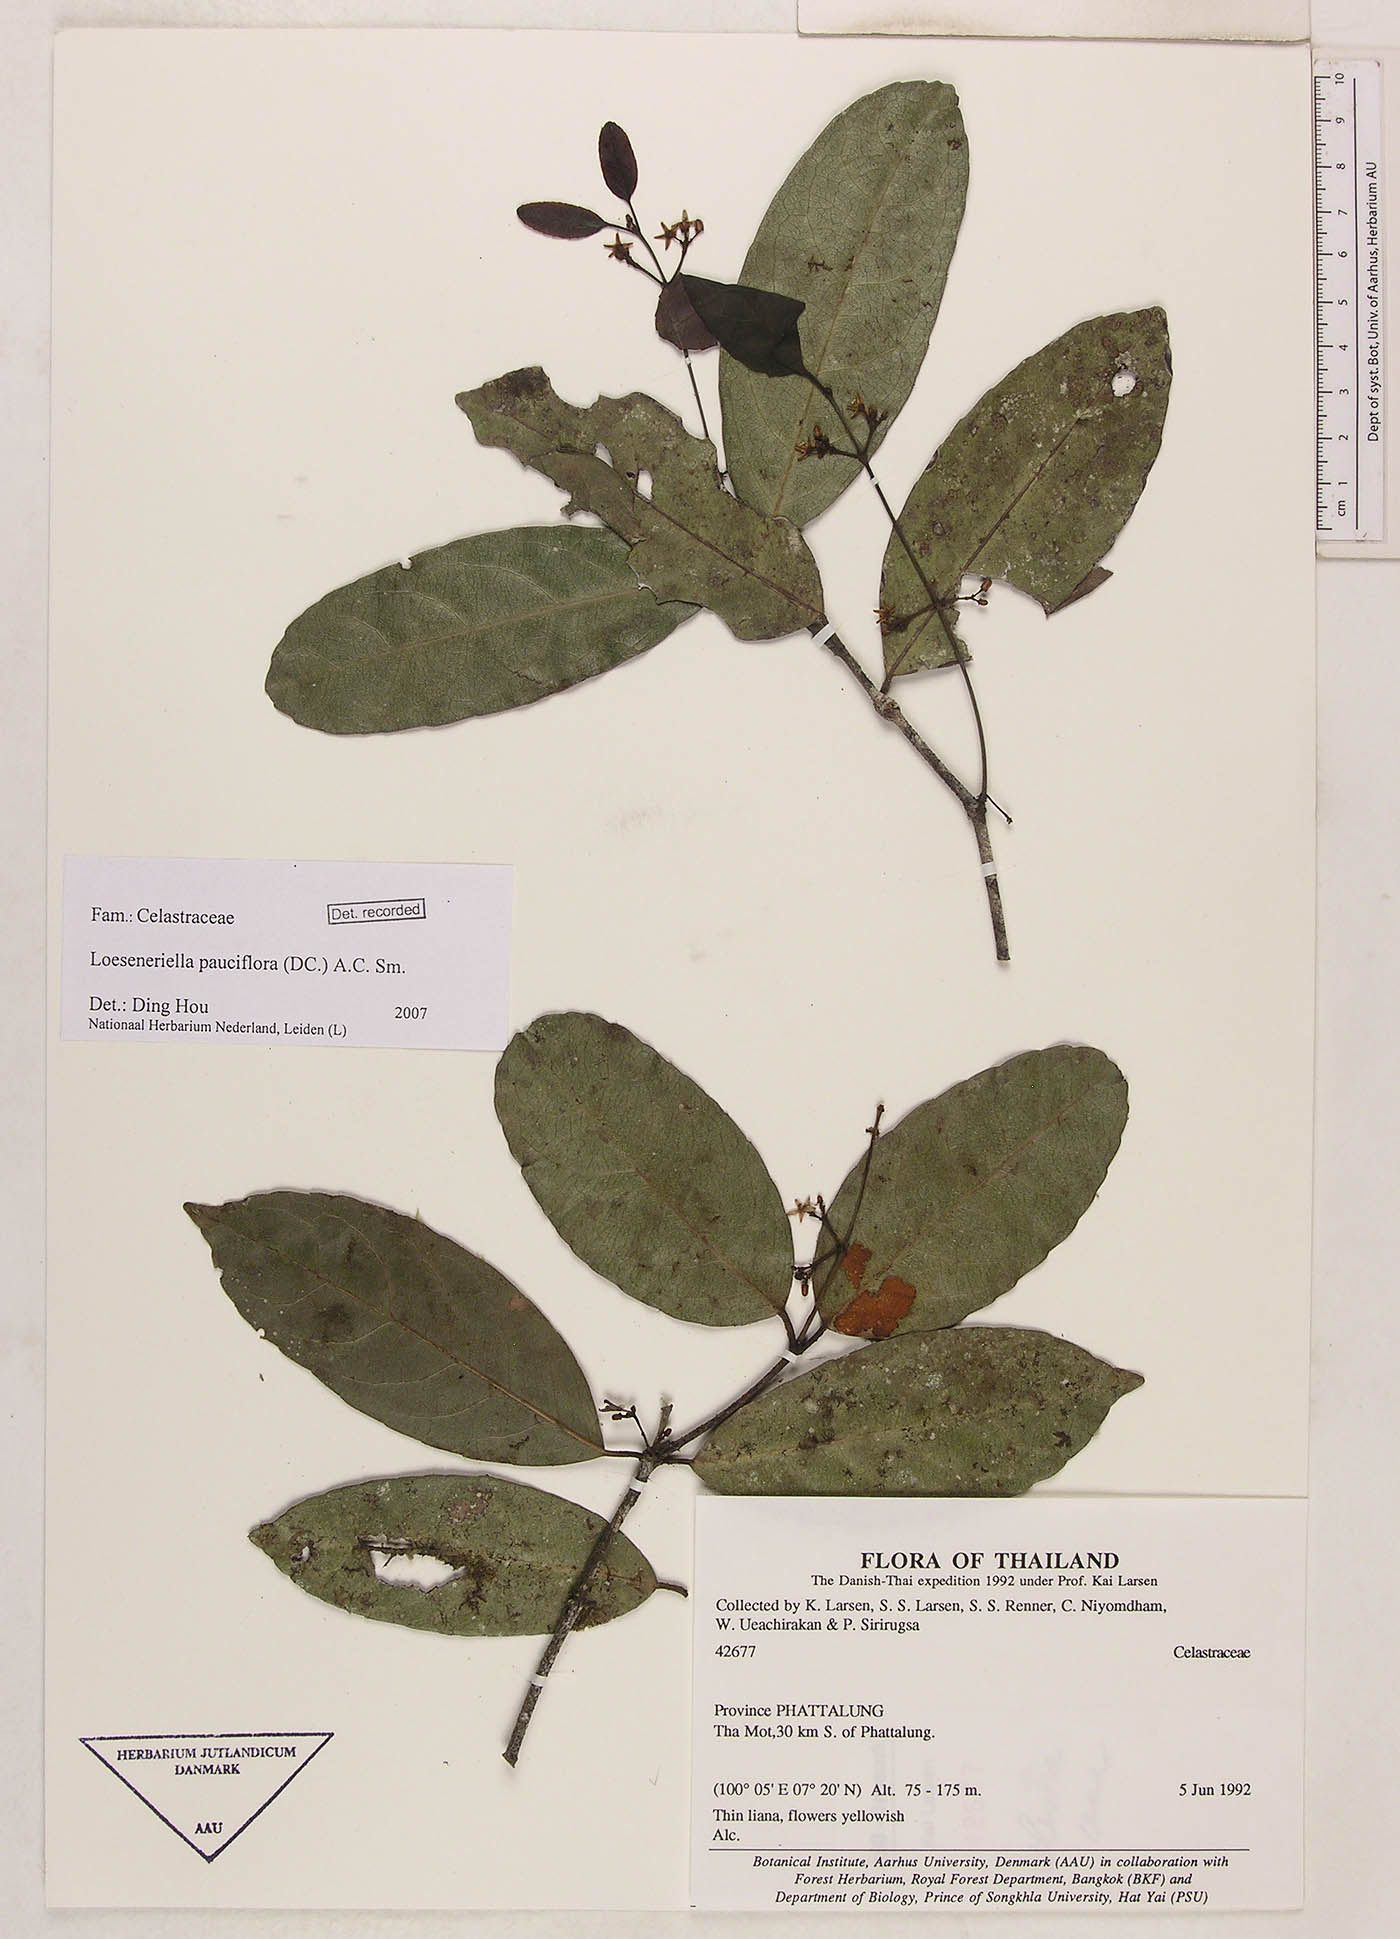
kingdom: Plantae
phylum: Tracheophyta
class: Magnoliopsida
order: Celastrales
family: Celastraceae
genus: Loeseneriella
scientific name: Loeseneriella pauciflora
